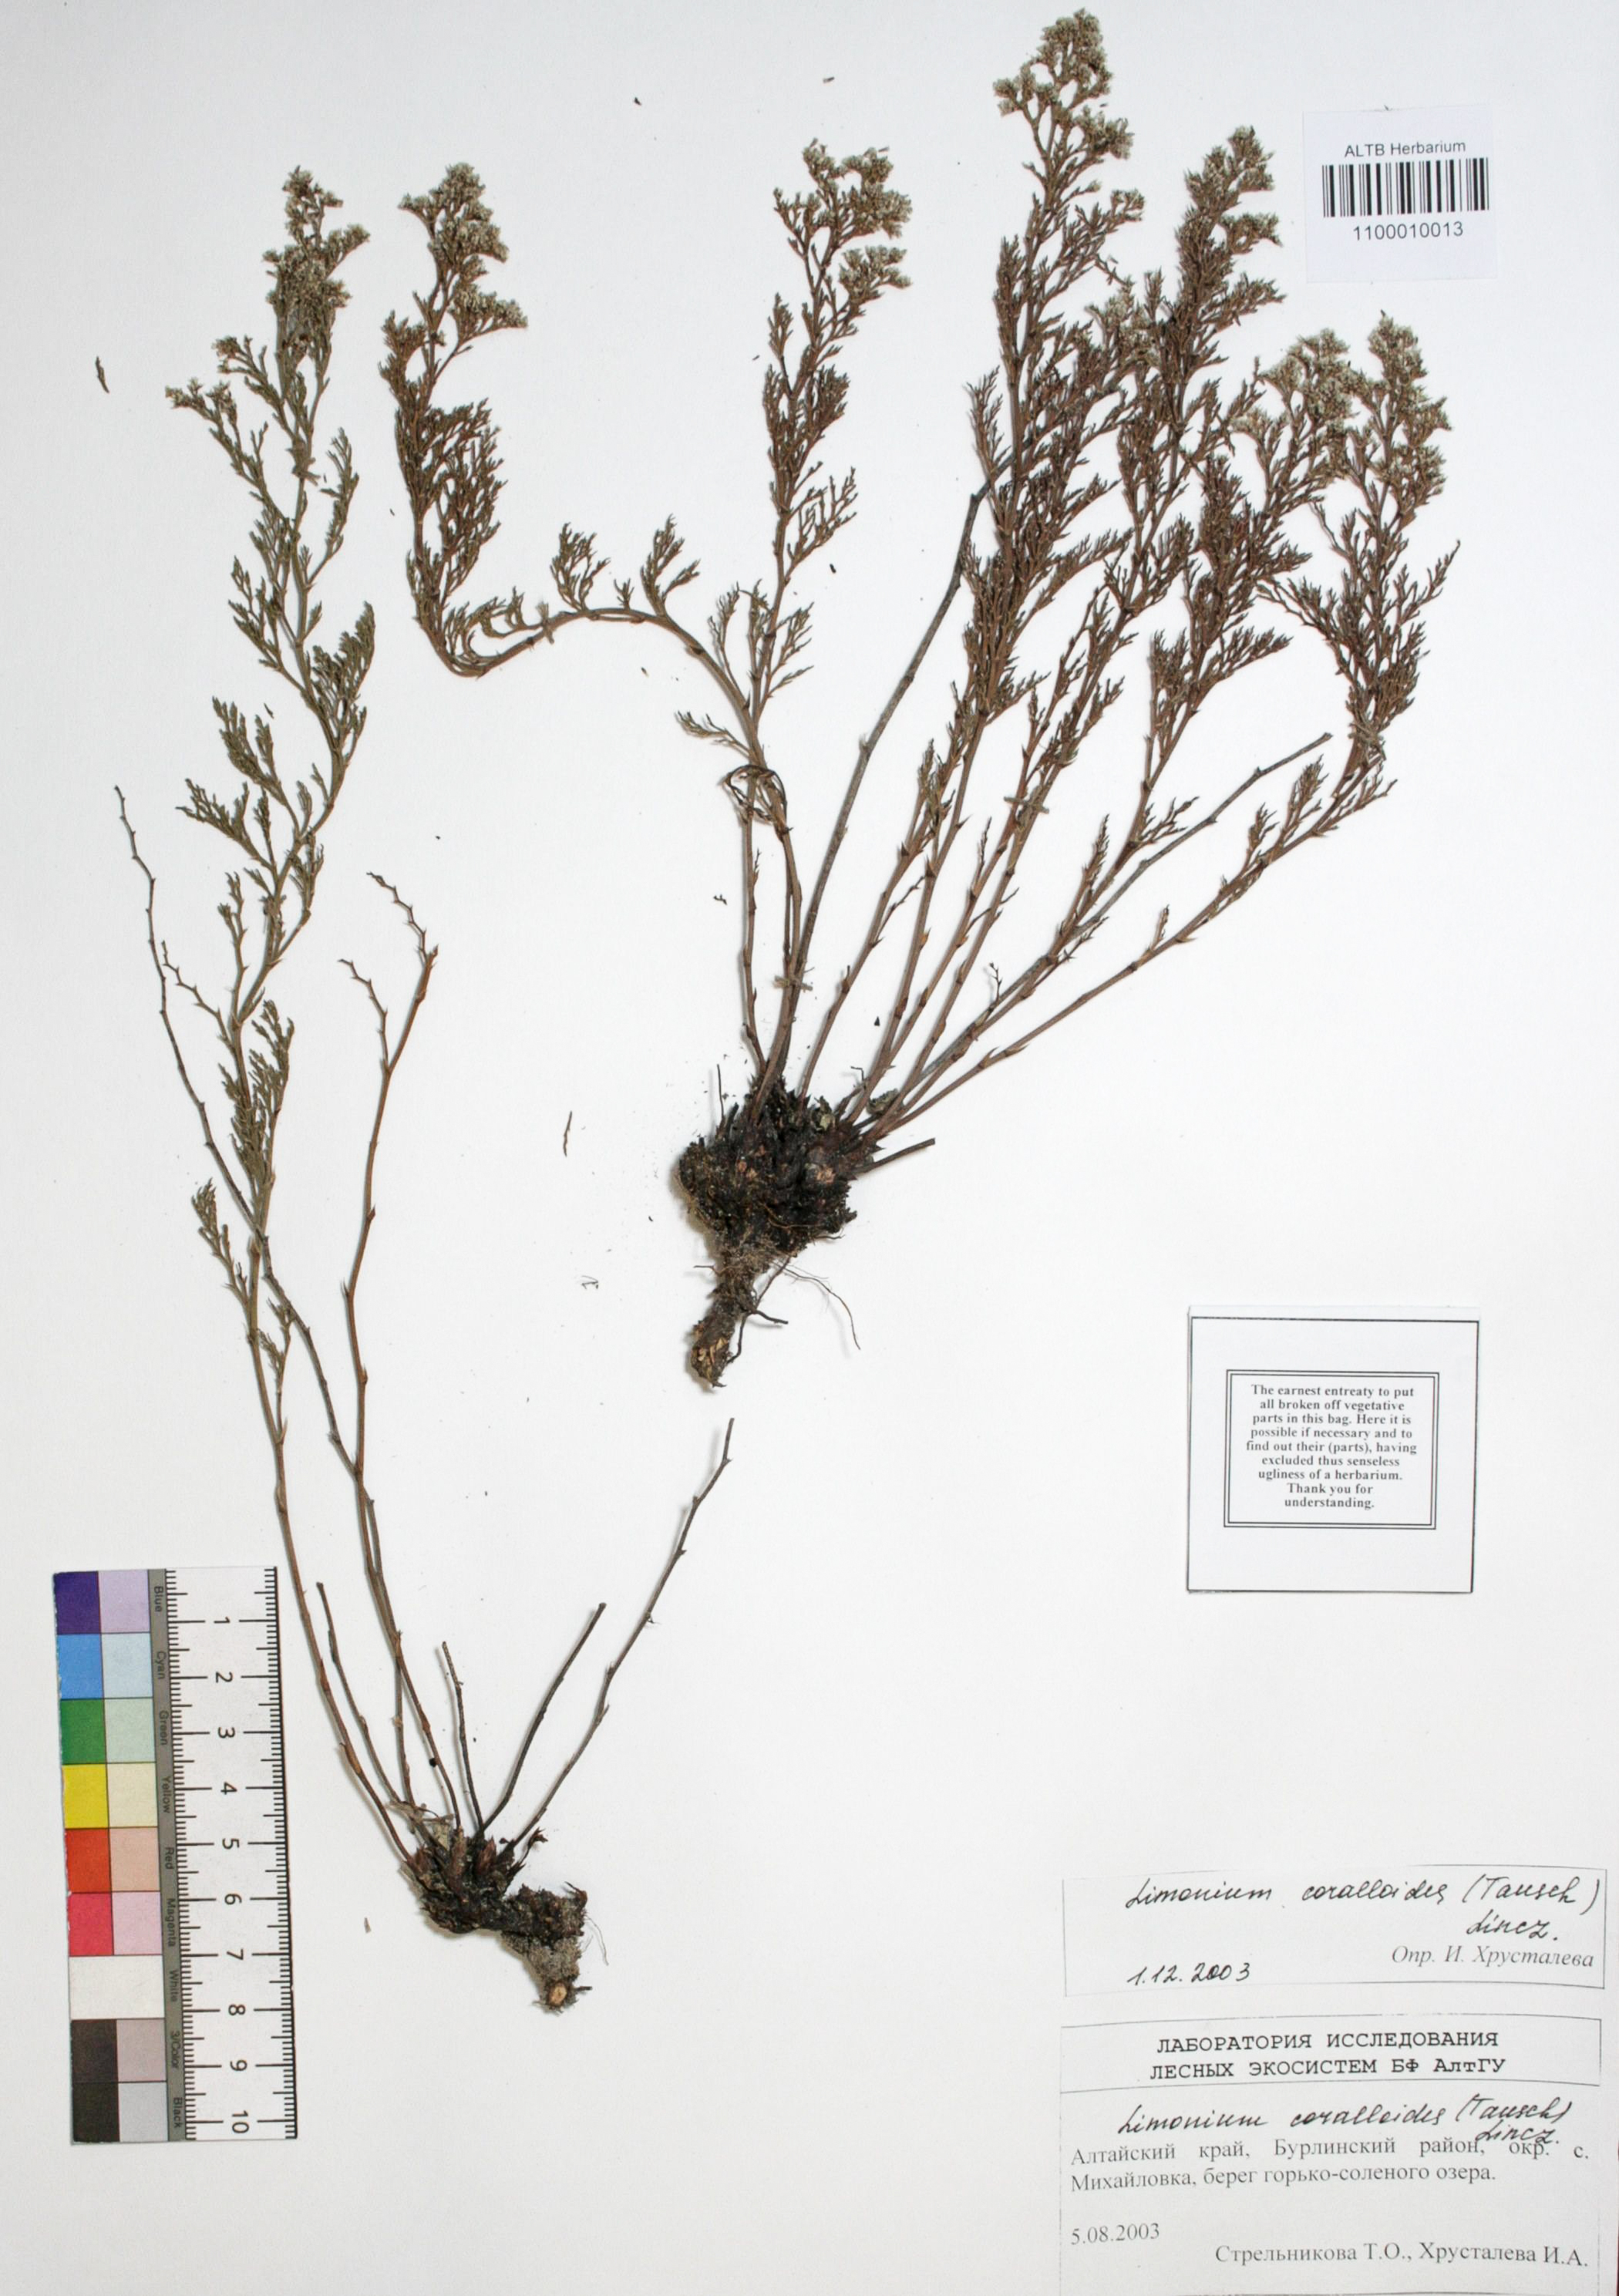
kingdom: Plantae
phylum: Tracheophyta
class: Magnoliopsida
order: Caryophyllales
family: Plumbaginaceae
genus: Limonium
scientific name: Limonium coralloides
